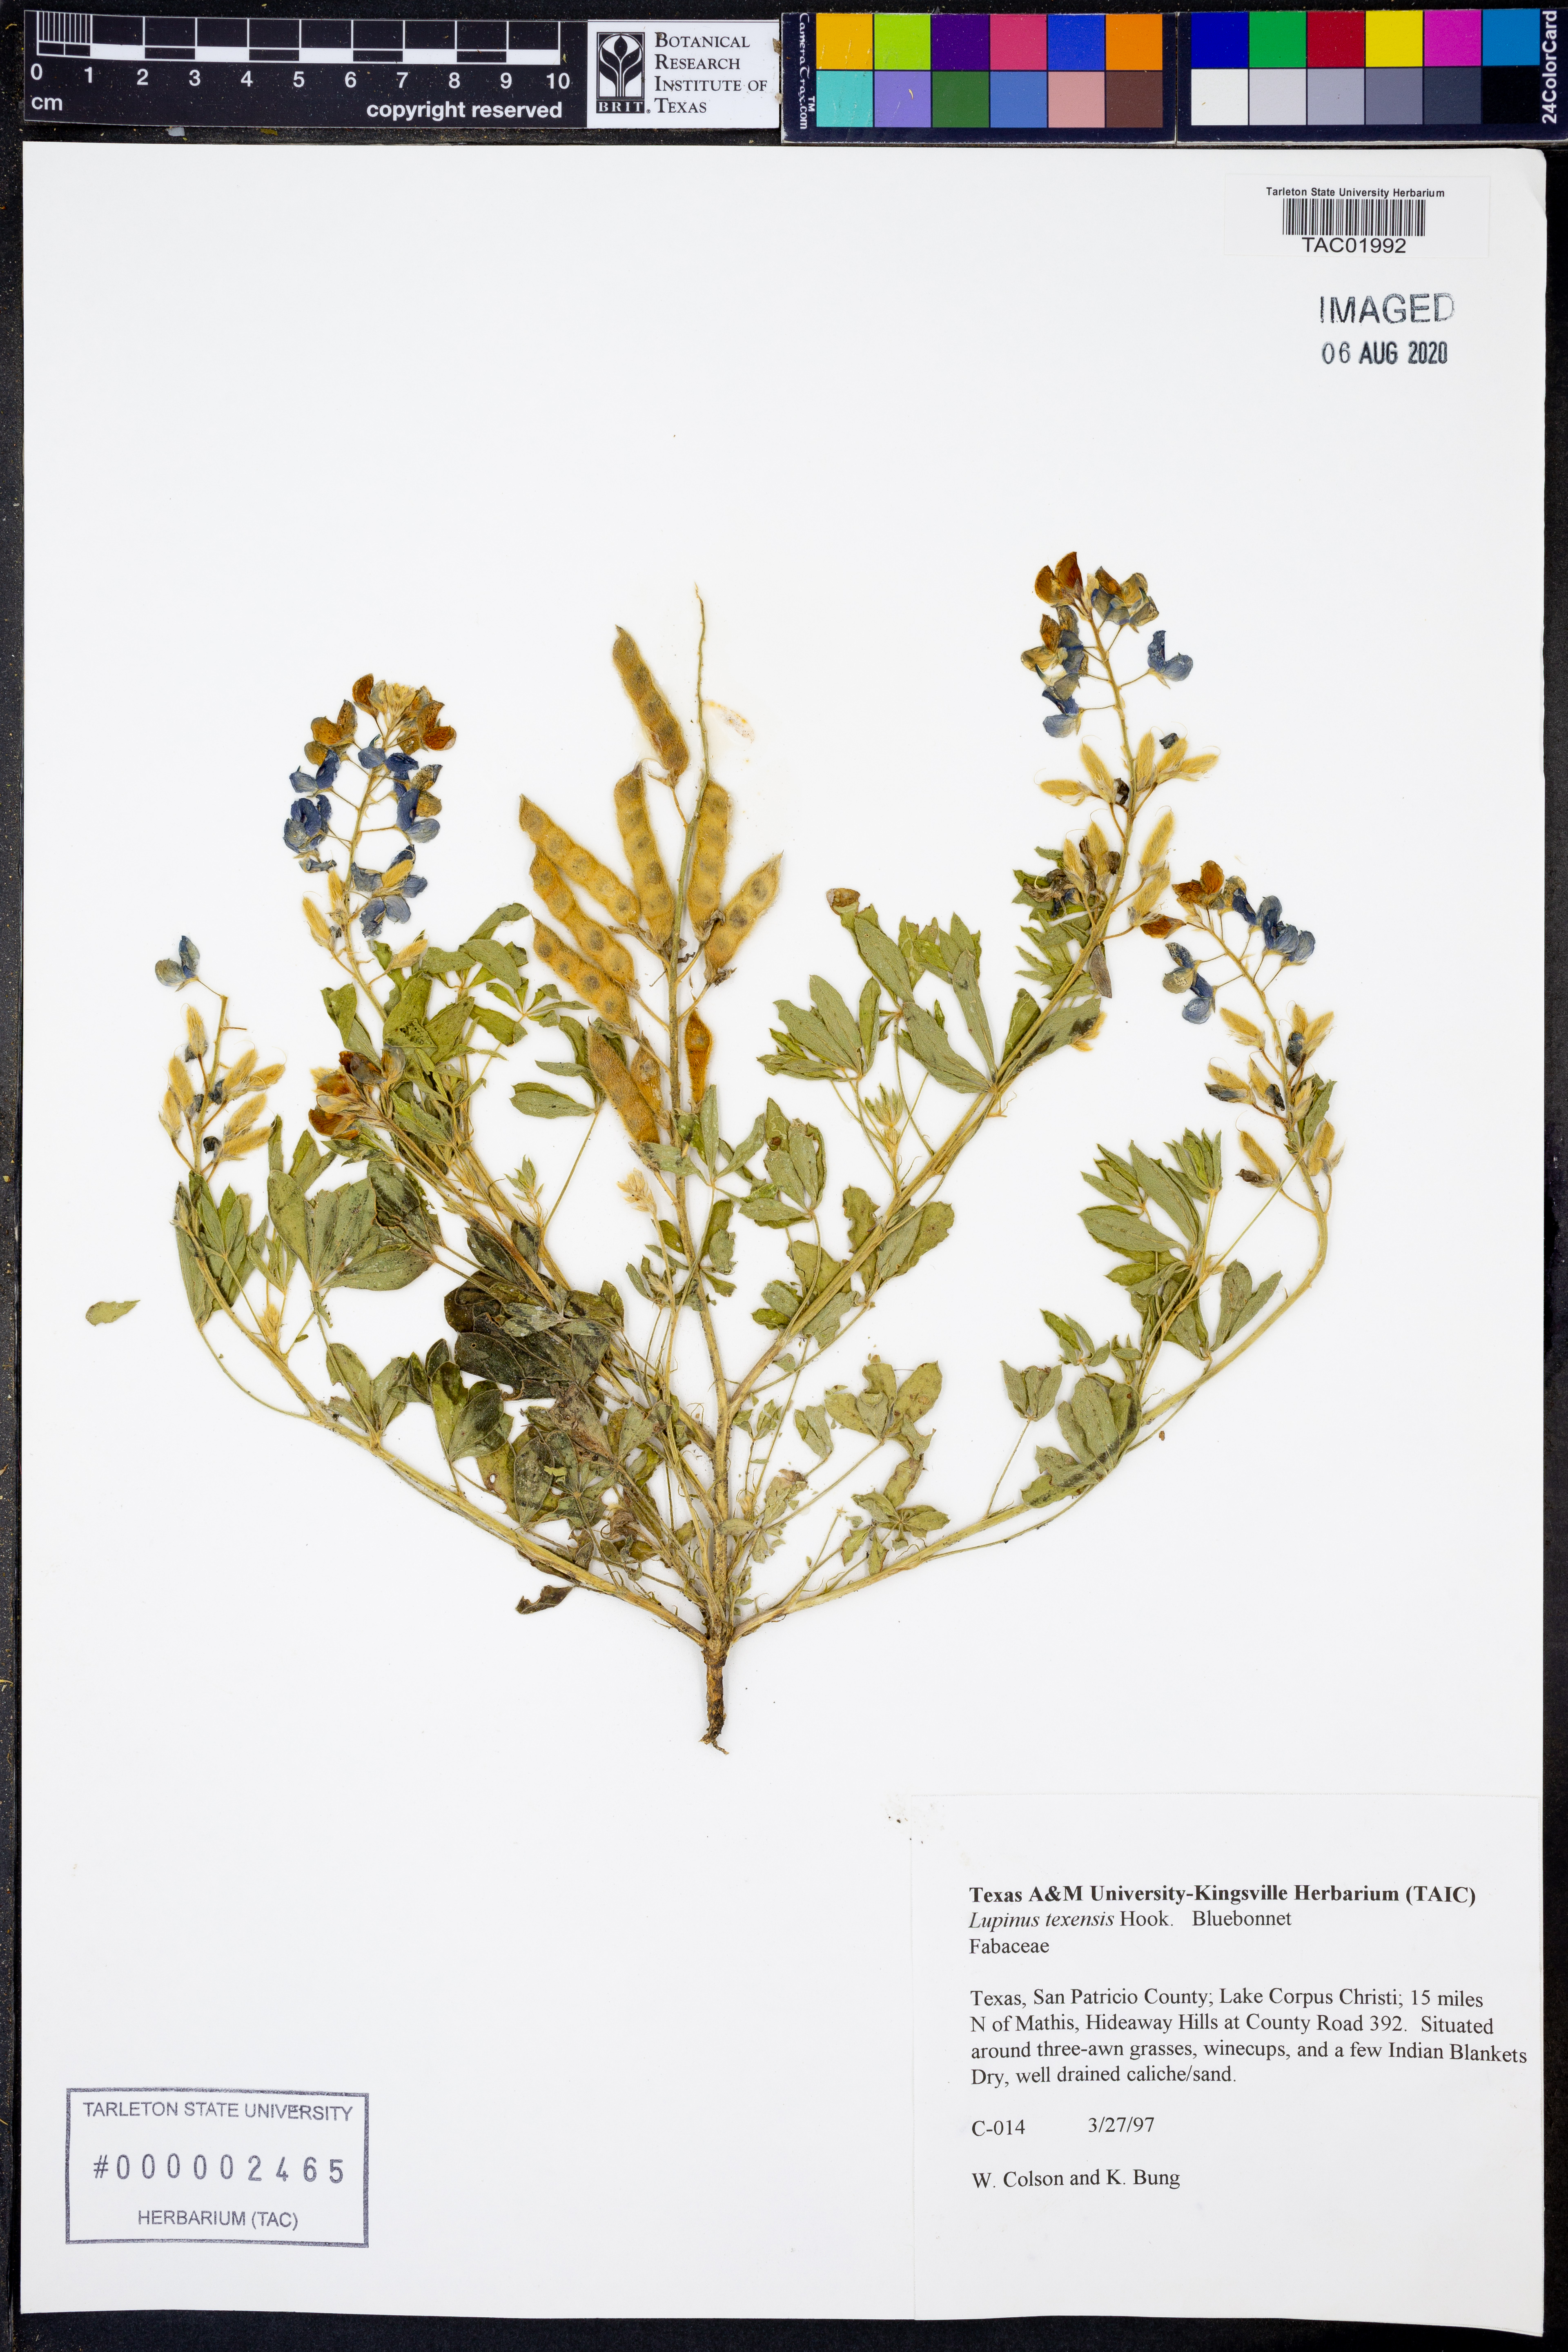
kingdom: Plantae
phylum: Tracheophyta
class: Magnoliopsida
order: Fabales
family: Fabaceae
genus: Lupinus
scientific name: Lupinus texensis
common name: Texas bluebonnet
